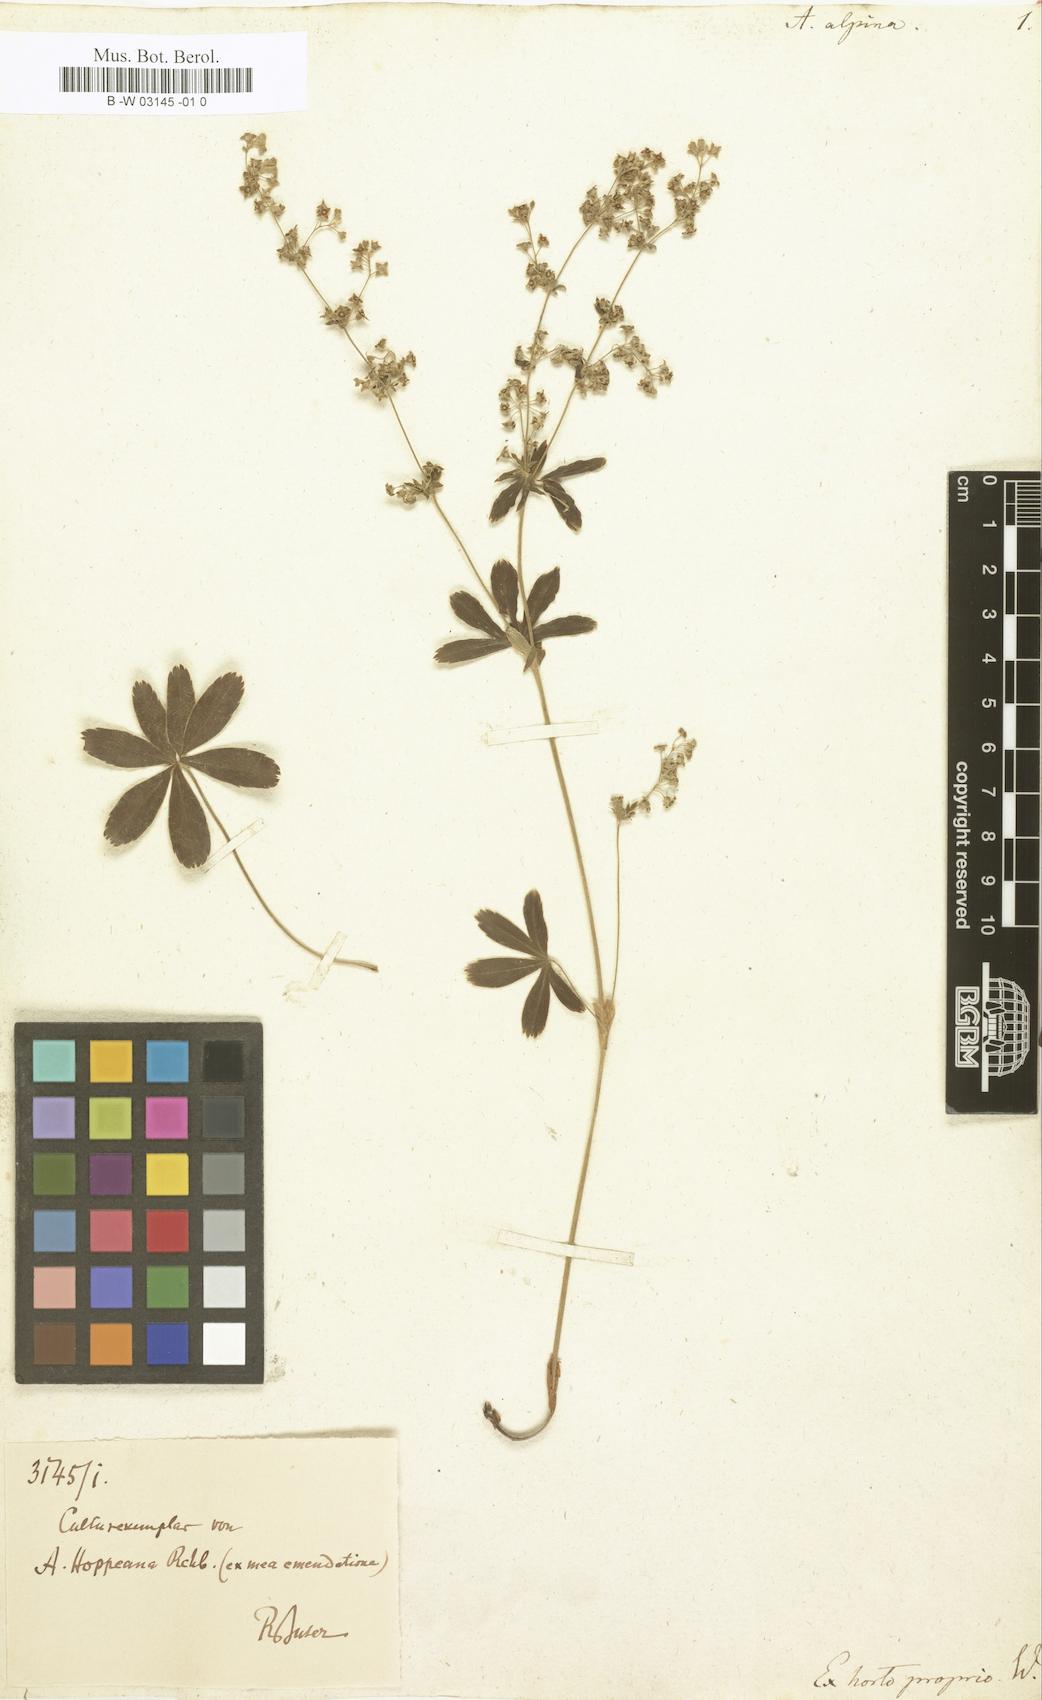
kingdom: Plantae
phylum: Tracheophyta
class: Magnoliopsida
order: Rosales
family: Rosaceae
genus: Alchemilla
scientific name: Alchemilla alpina
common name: Alpine lady's-mantle
